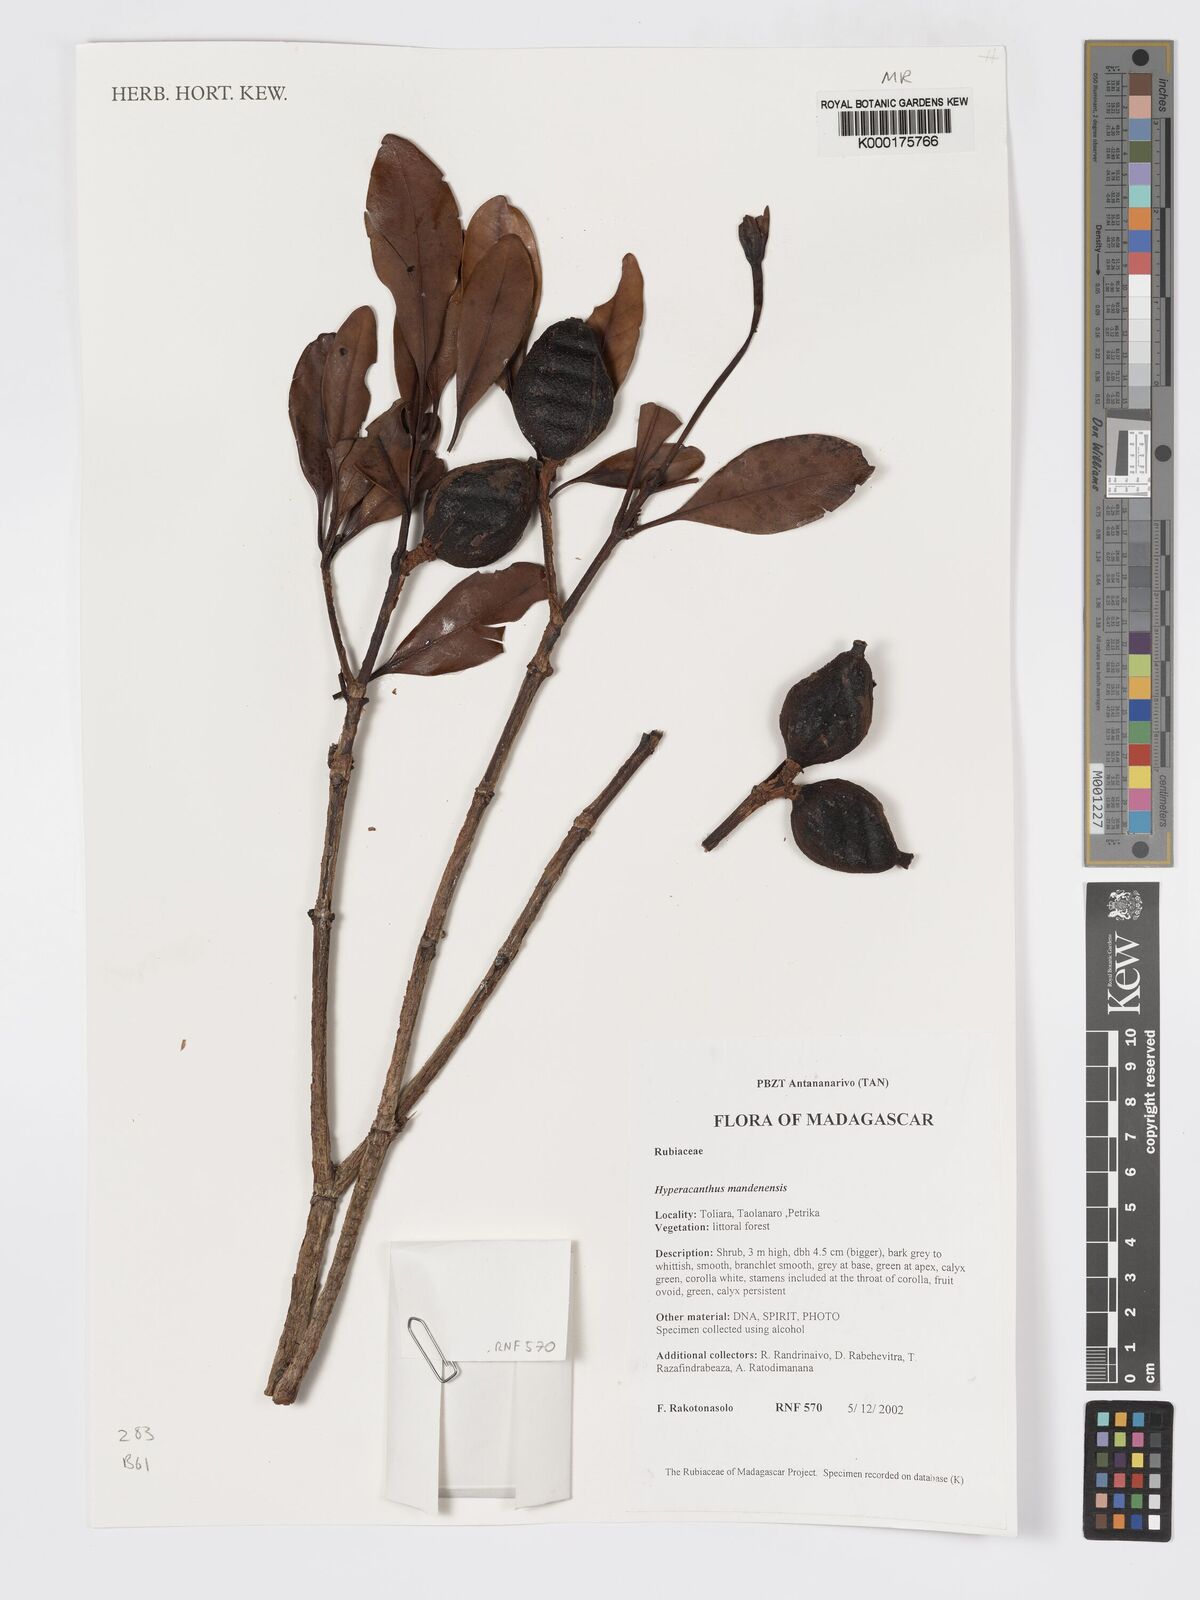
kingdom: Plantae
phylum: Tracheophyta
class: Magnoliopsida
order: Gentianales
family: Rubiaceae
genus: Hyperacanthus
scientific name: Hyperacanthus mandenensis
